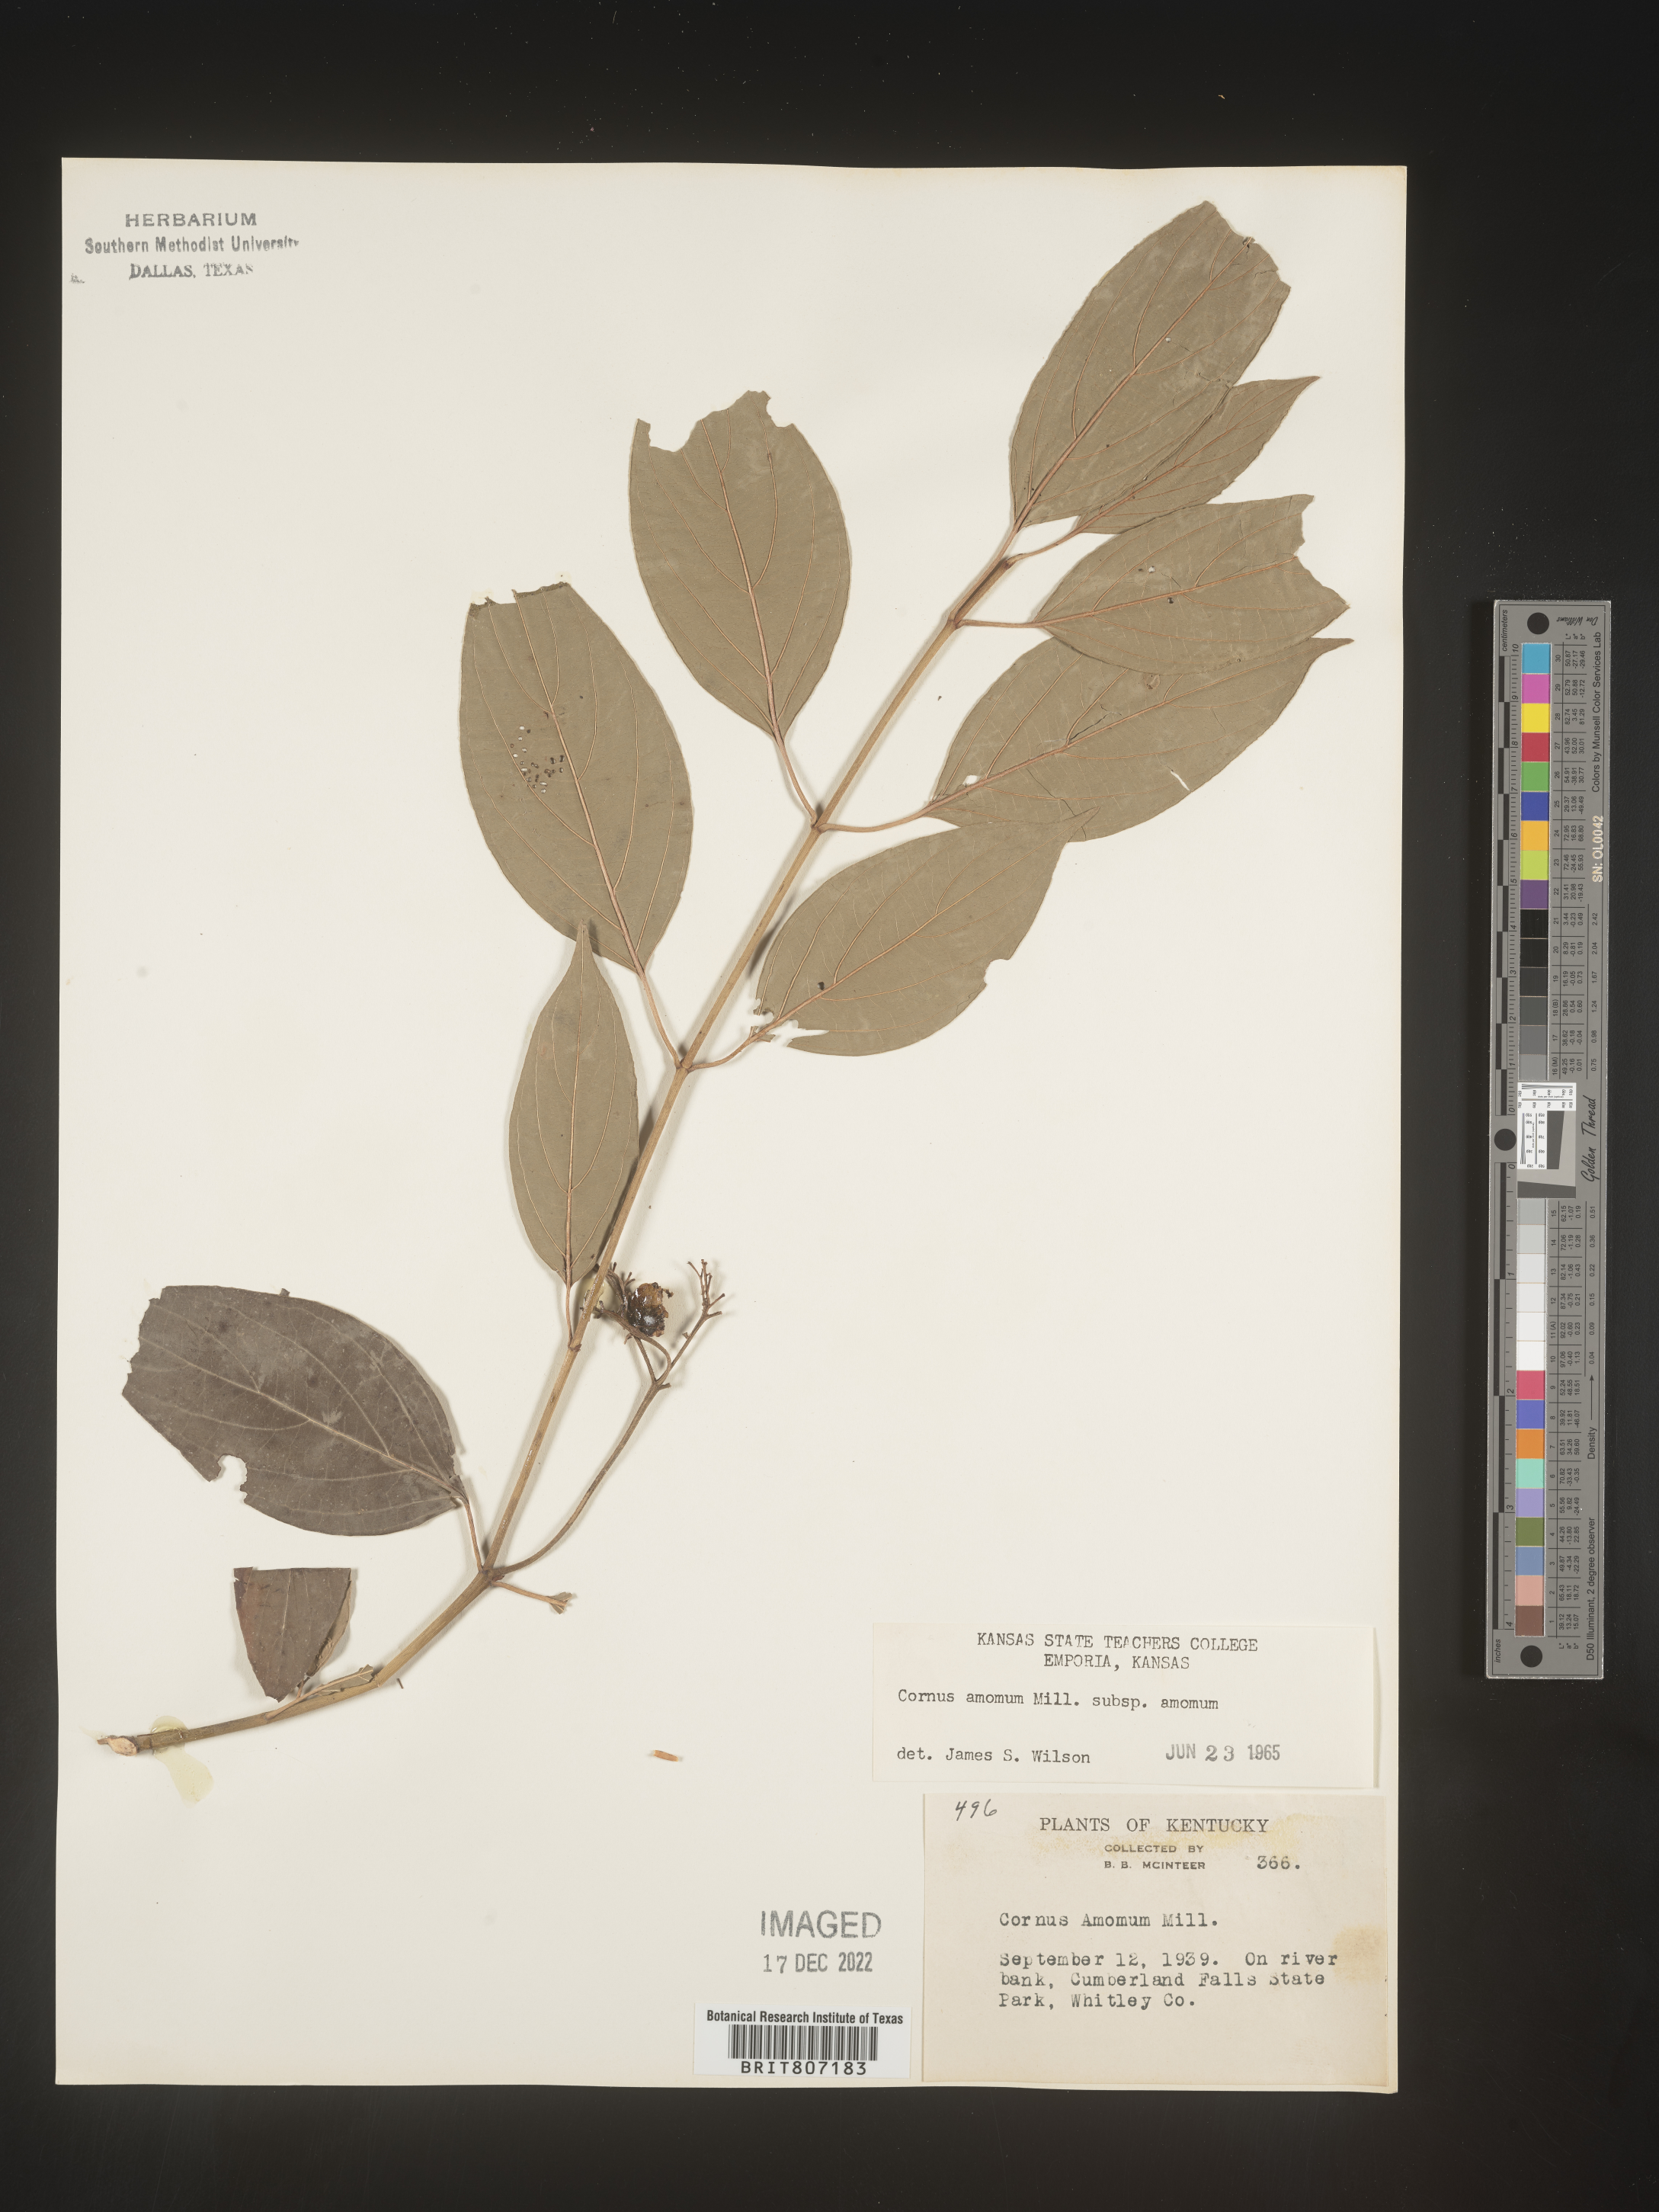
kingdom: Plantae
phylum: Tracheophyta
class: Magnoliopsida
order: Cornales
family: Cornaceae
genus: Cornus
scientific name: Cornus amomum
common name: Silky dogwood
